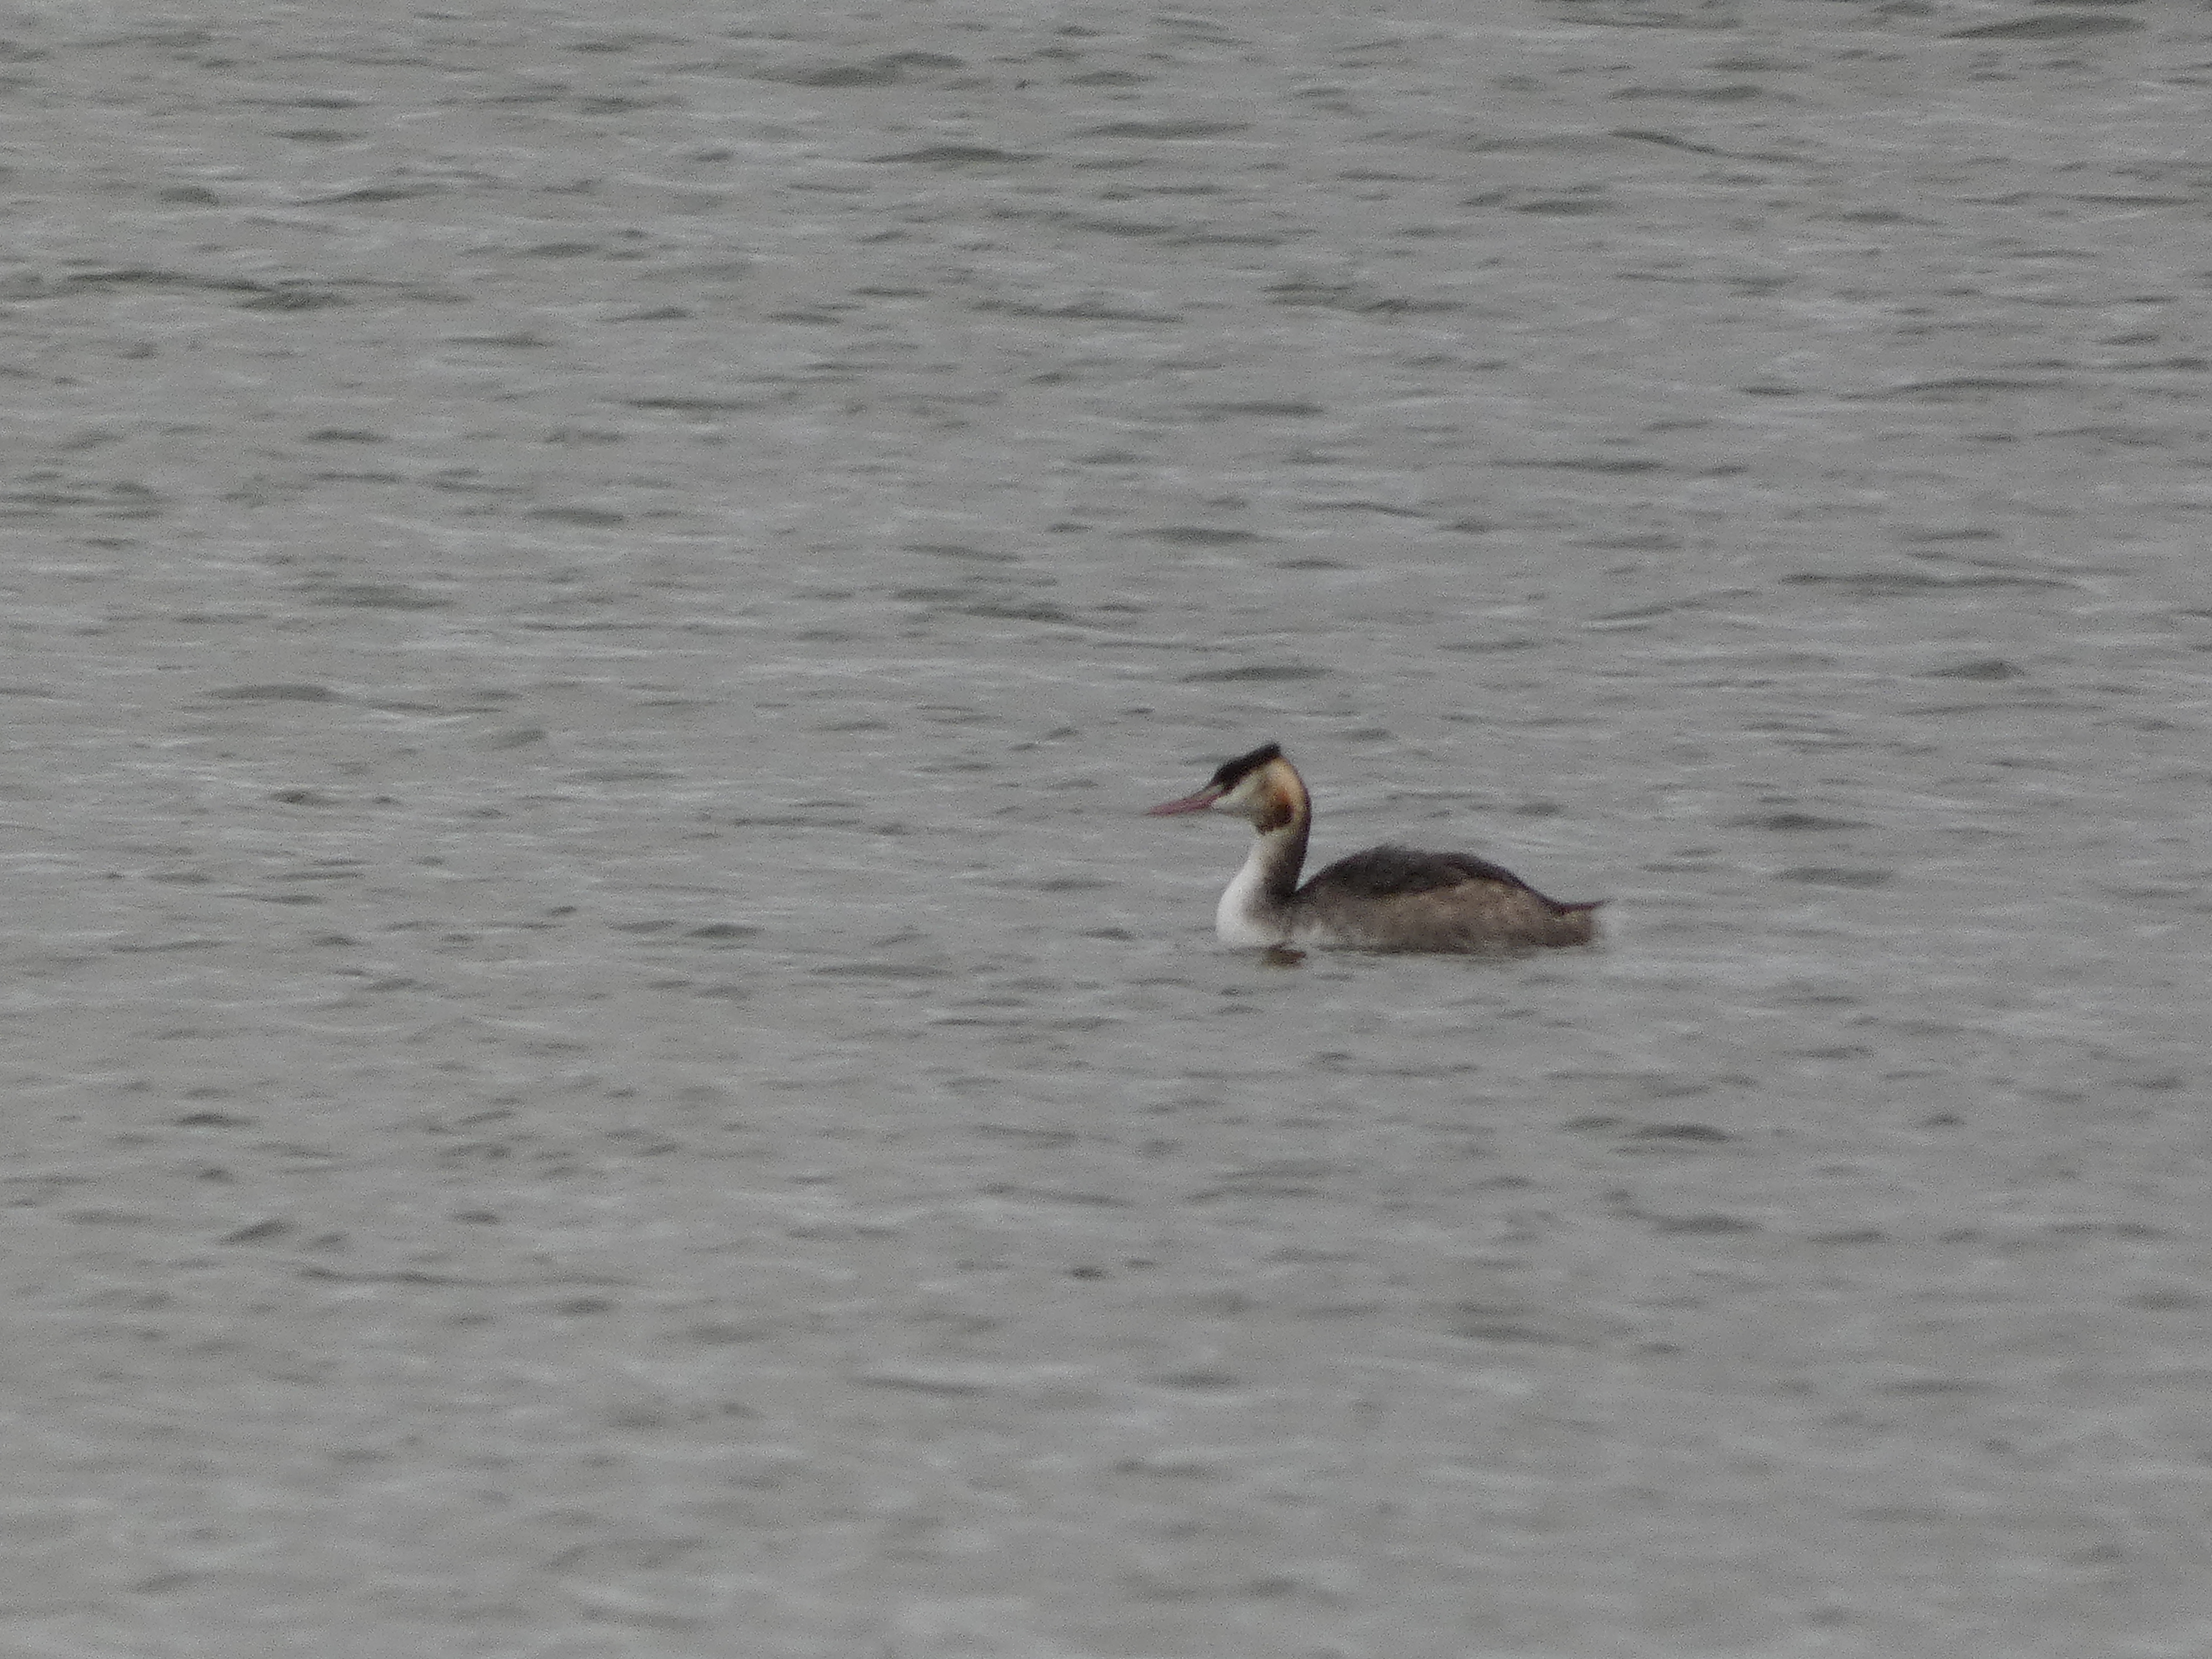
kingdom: Animalia
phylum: Chordata
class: Aves
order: Podicipediformes
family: Podicipedidae
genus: Podiceps
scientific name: Podiceps cristatus
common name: Toppet lappedykker
